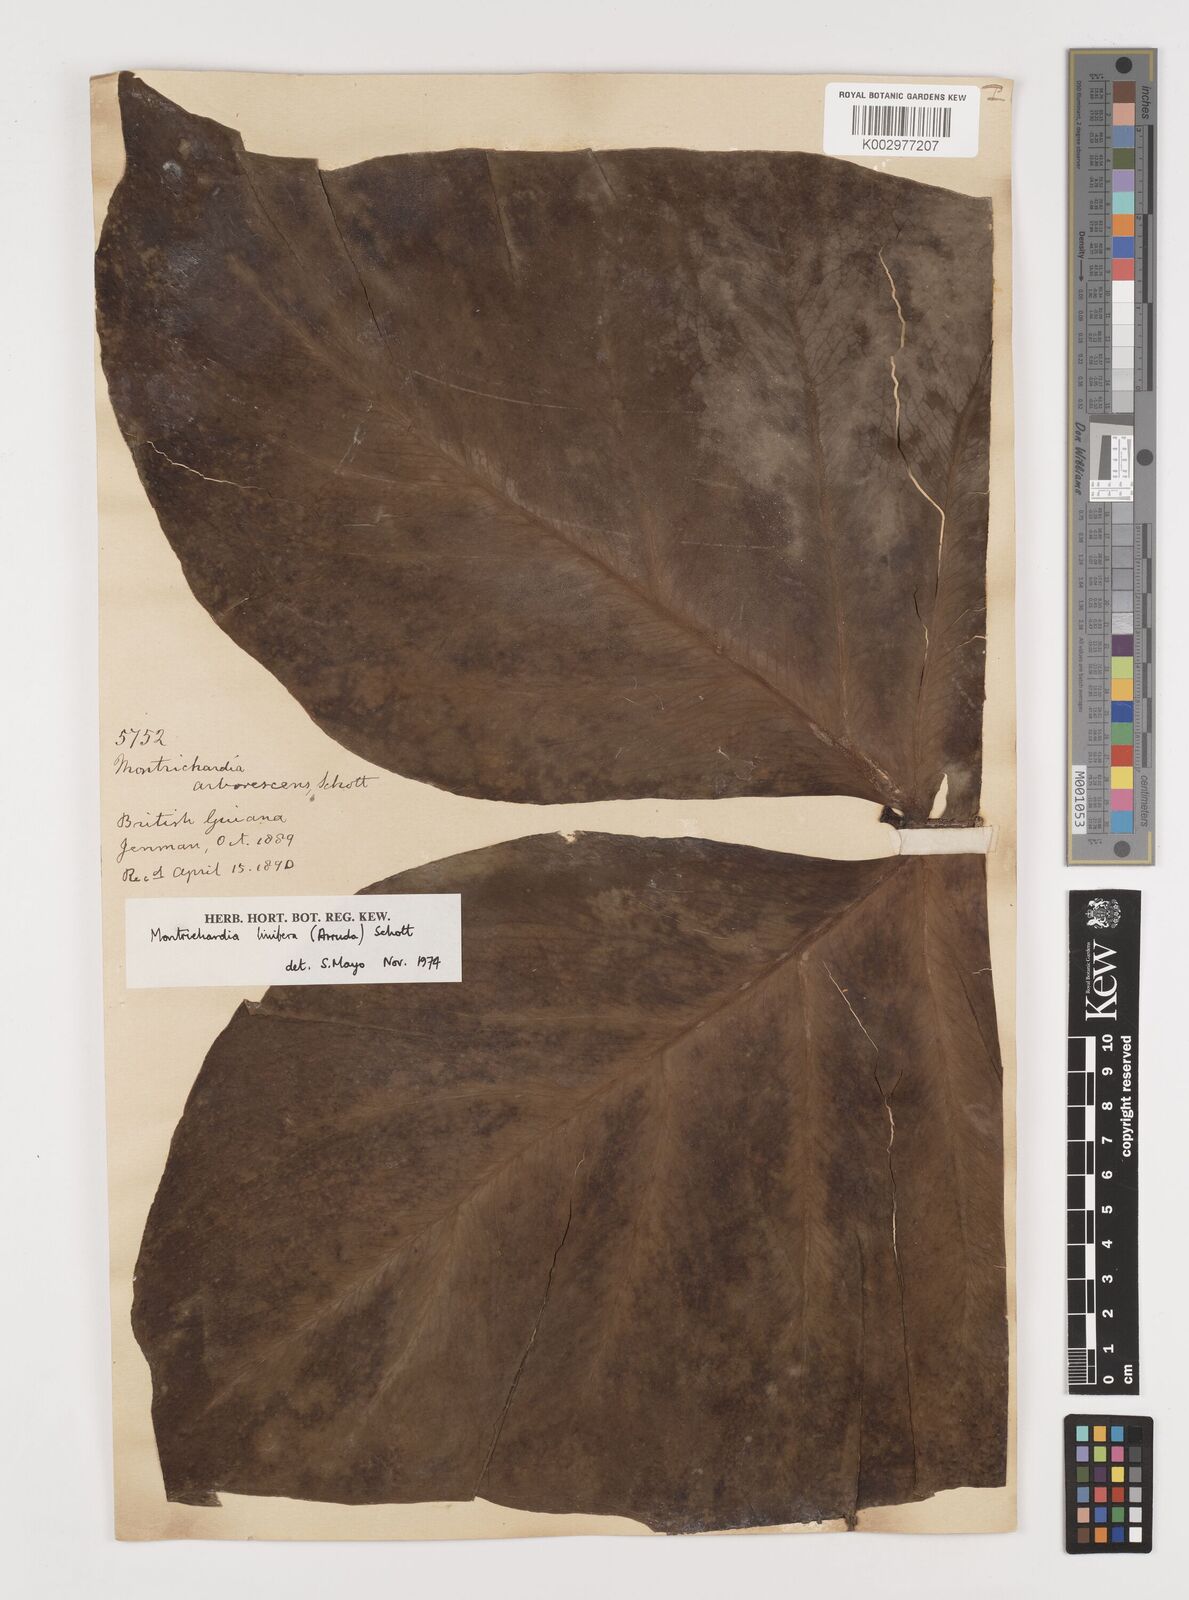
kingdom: Plantae
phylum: Tracheophyta
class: Liliopsida
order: Alismatales
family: Araceae
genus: Montrichardia
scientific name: Montrichardia linifera
